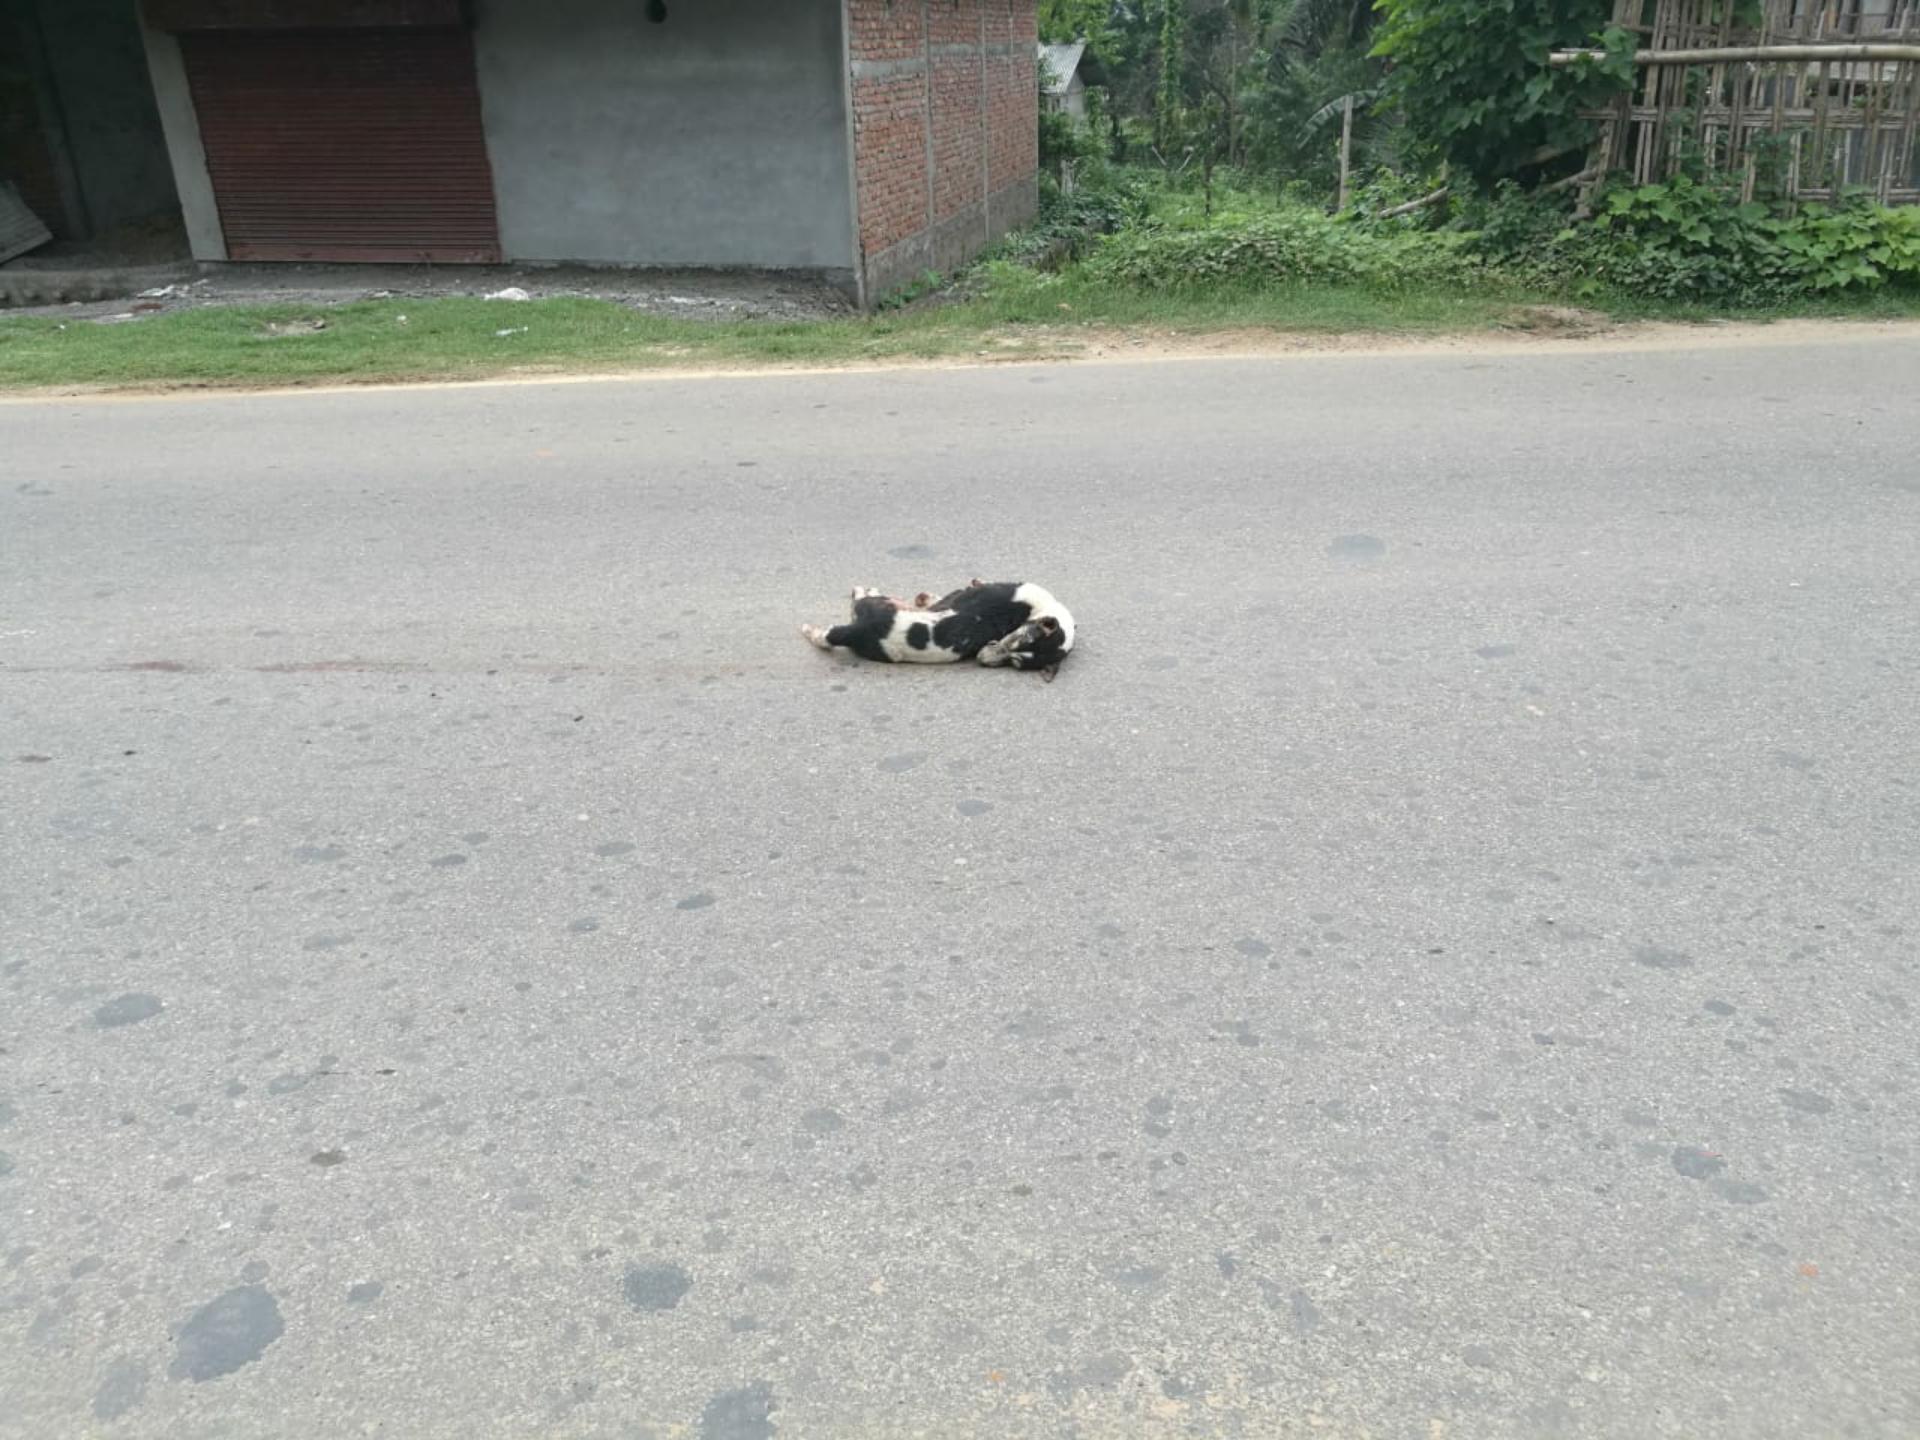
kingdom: Animalia
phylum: Chordata
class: Mammalia
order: Carnivora
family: Canidae
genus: Canis
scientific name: Canis lupus
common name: Gray wolf
